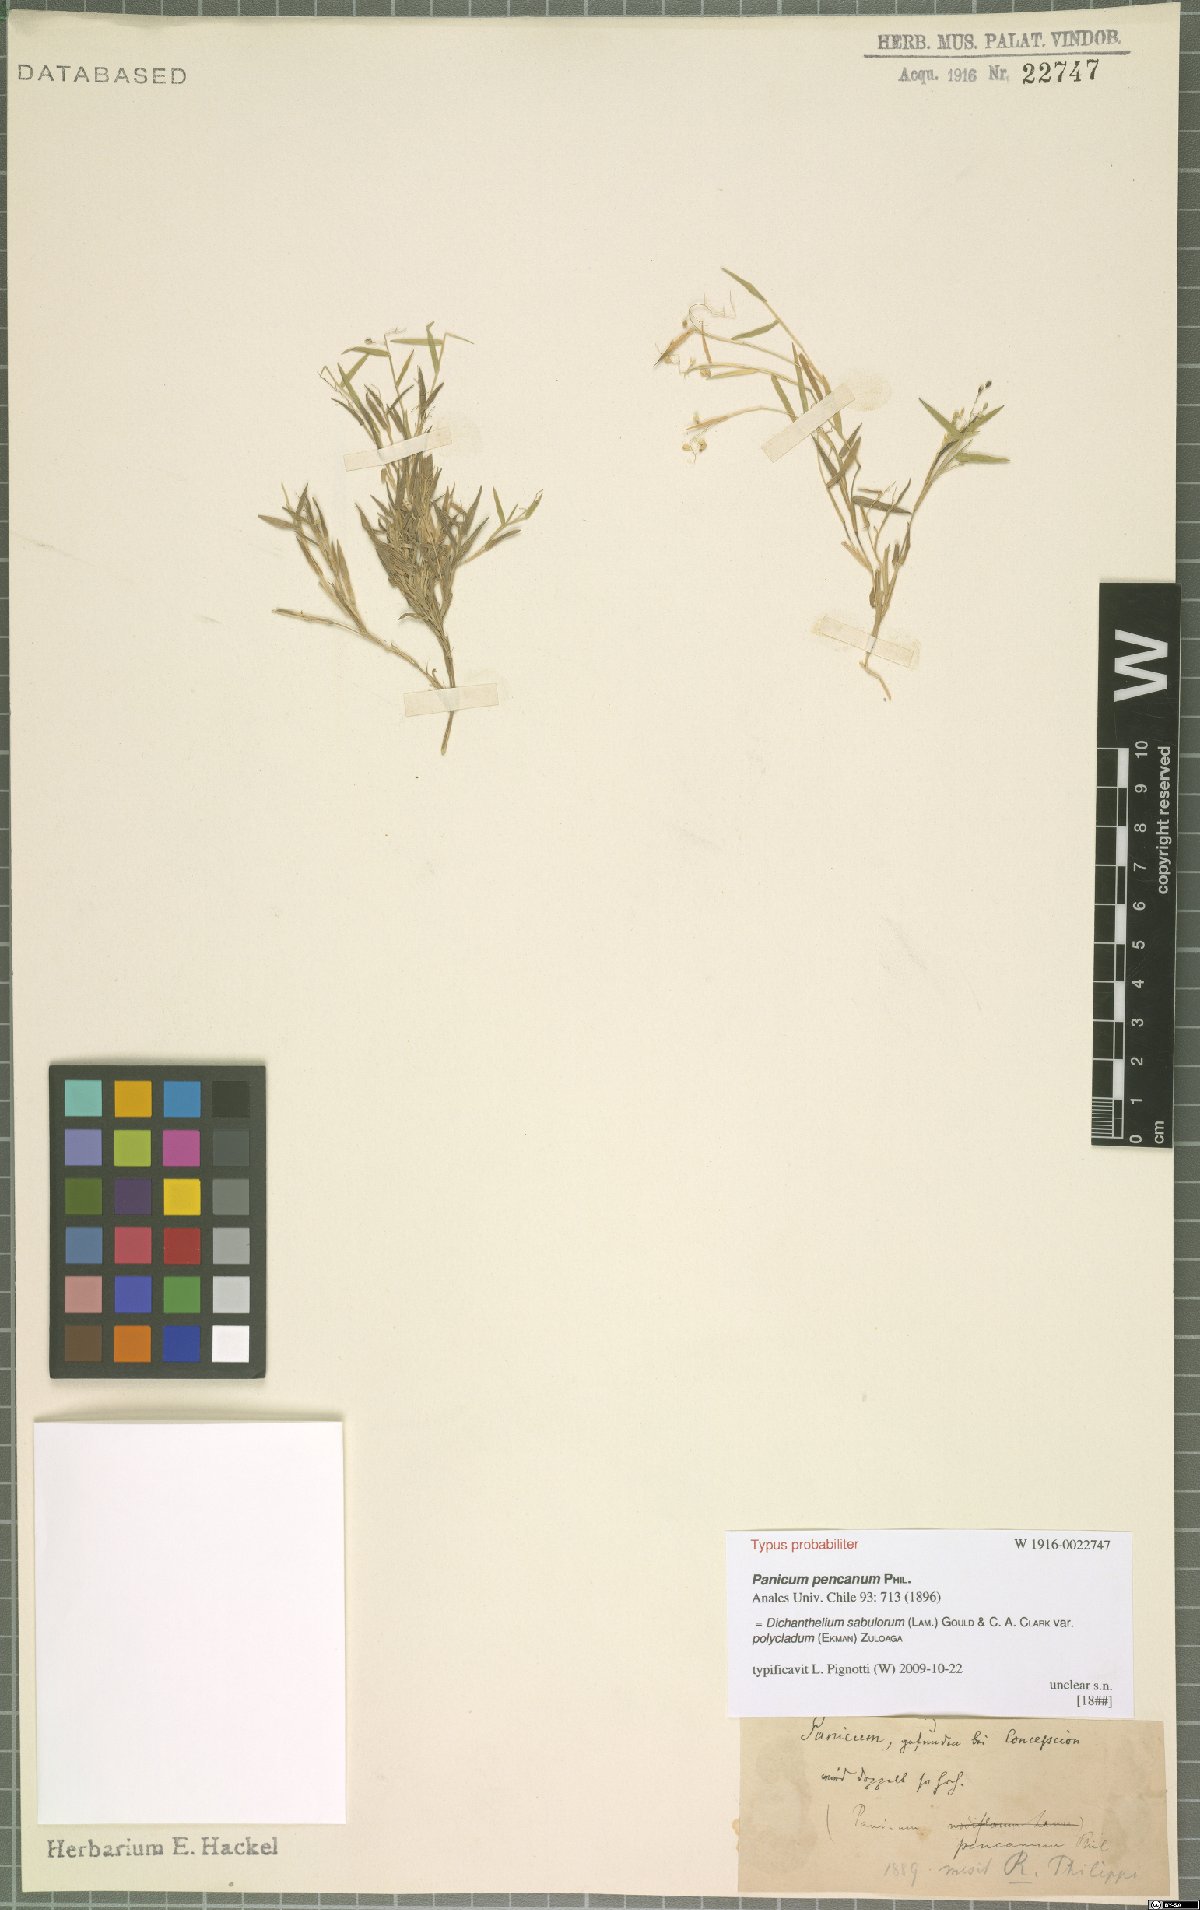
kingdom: Plantae
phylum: Tracheophyta
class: Liliopsida
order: Poales
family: Poaceae
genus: Dichanthelium
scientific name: Dichanthelium sabulorum
